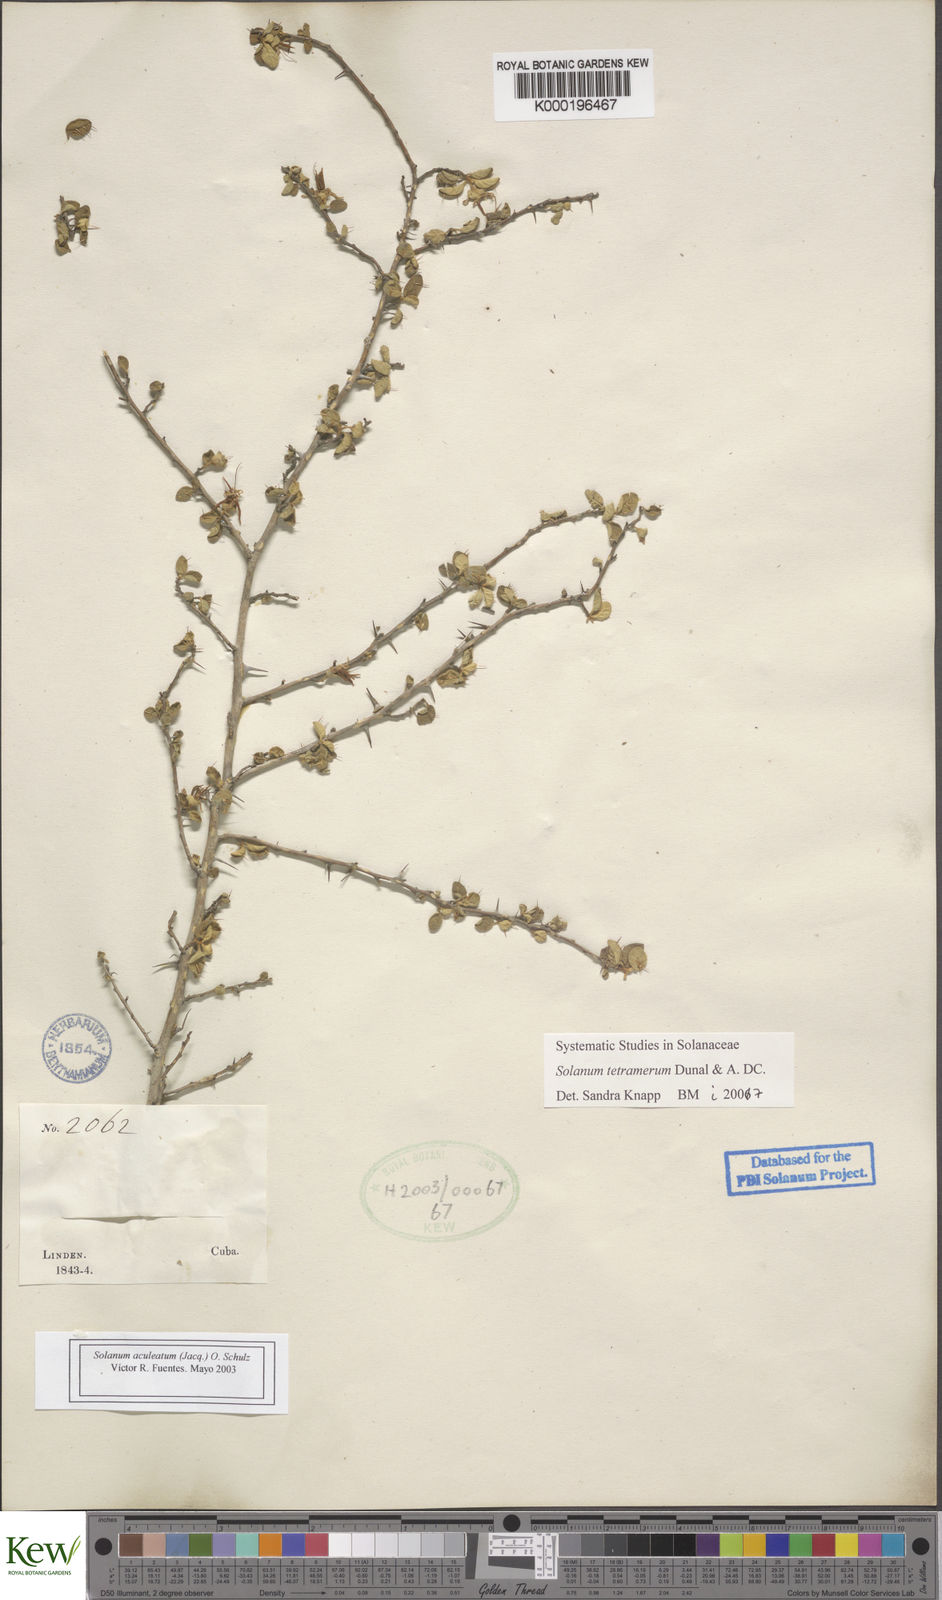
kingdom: Plantae
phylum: Tracheophyta
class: Magnoliopsida
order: Solanales
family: Solanaceae
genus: Solanum
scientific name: Solanum tetramerum
